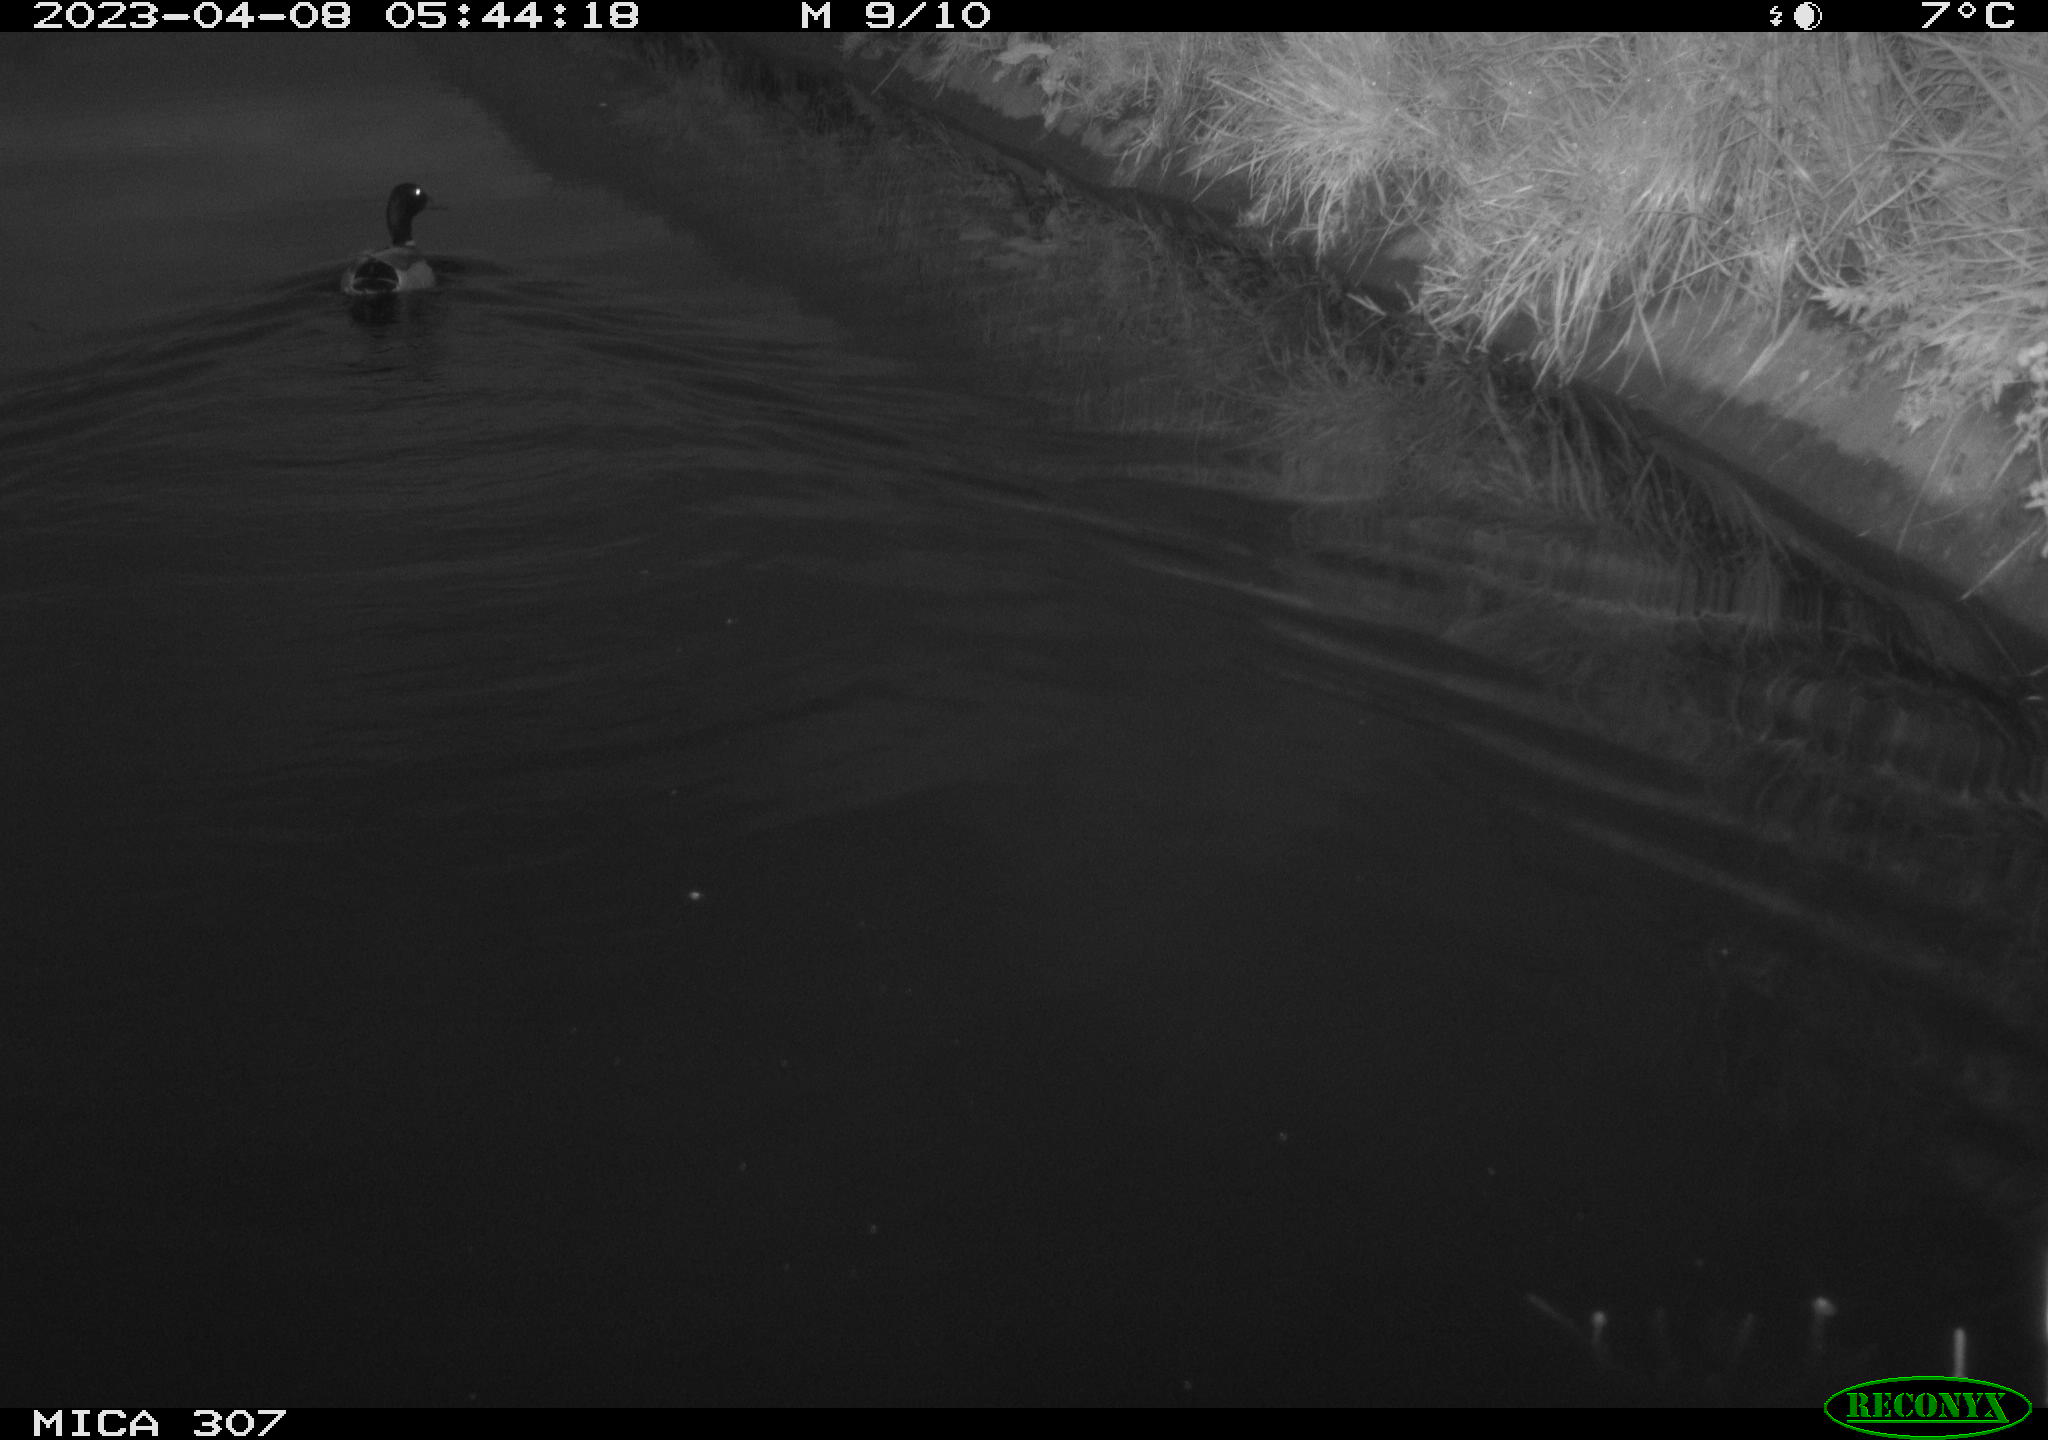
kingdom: Animalia
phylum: Chordata
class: Aves
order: Anseriformes
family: Anatidae
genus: Anas
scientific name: Anas
